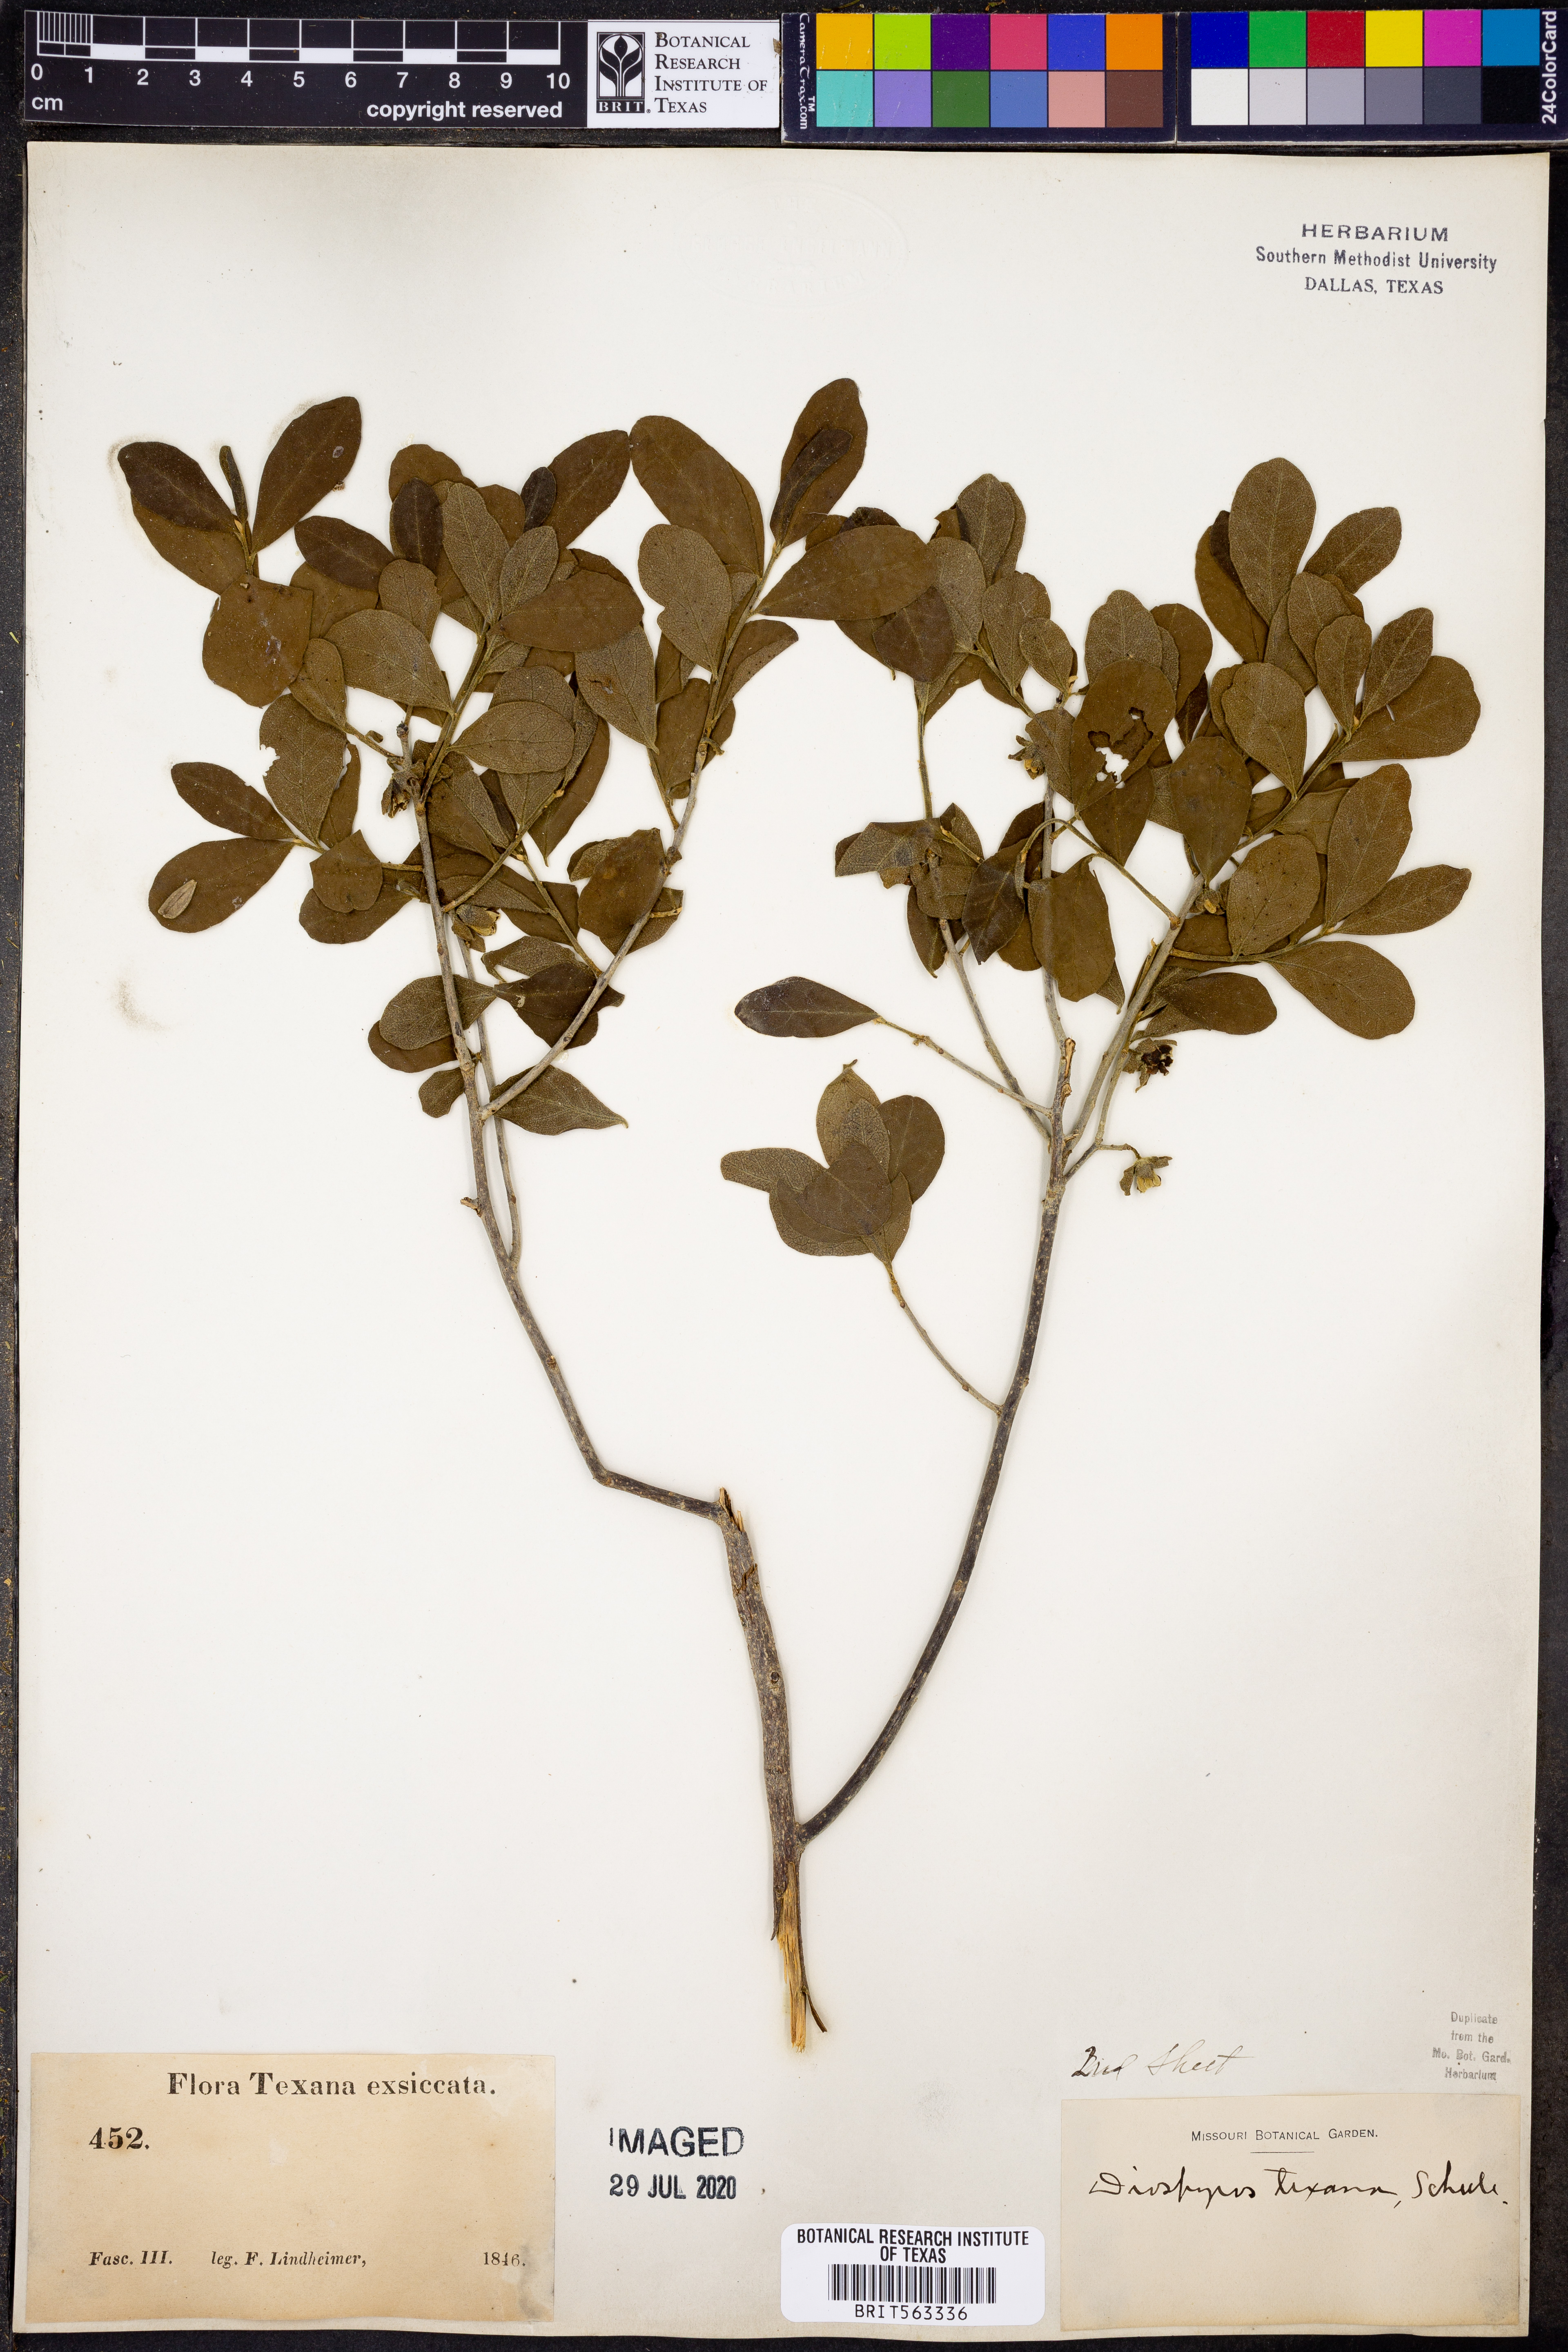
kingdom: Plantae
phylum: Tracheophyta
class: Magnoliopsida
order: Ericales
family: Ebenaceae
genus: Diospyros
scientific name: Diospyros texana
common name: Texas persimmon
